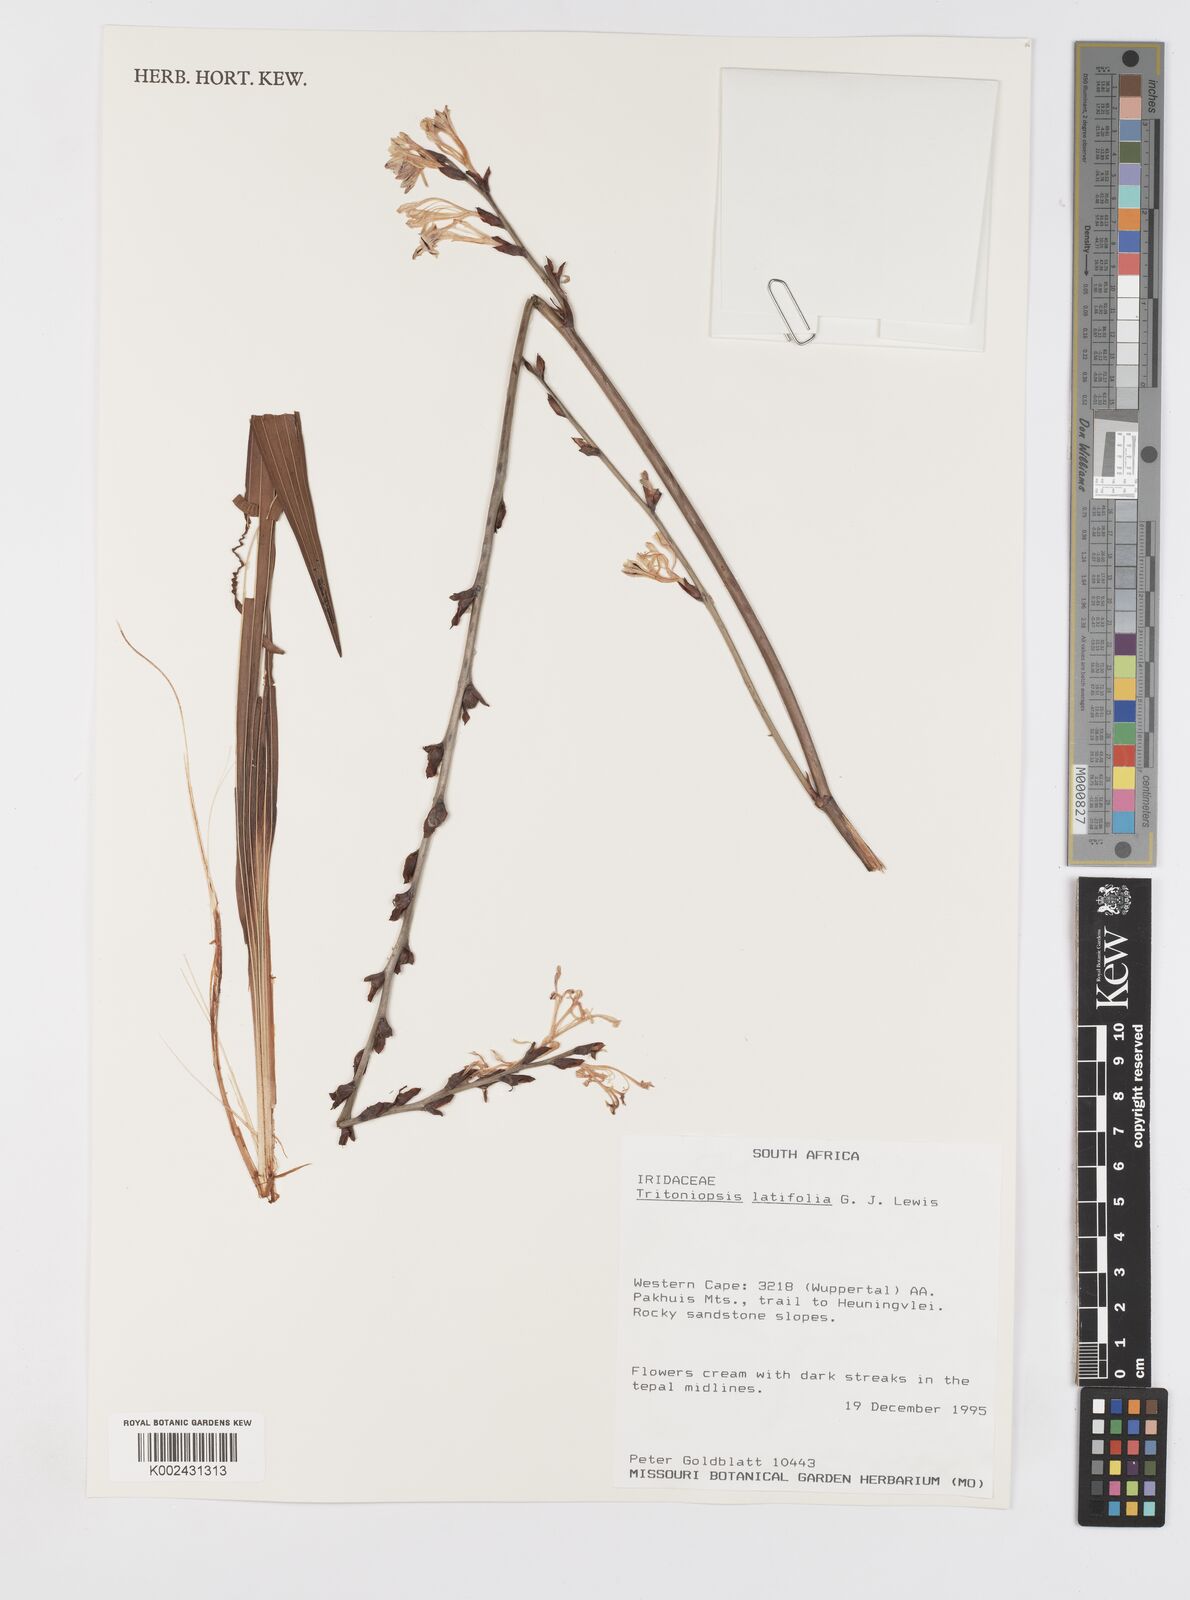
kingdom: Plantae
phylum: Tracheophyta
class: Liliopsida
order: Asparagales
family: Iridaceae
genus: Tritoniopsis
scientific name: Tritoniopsis latifolia
